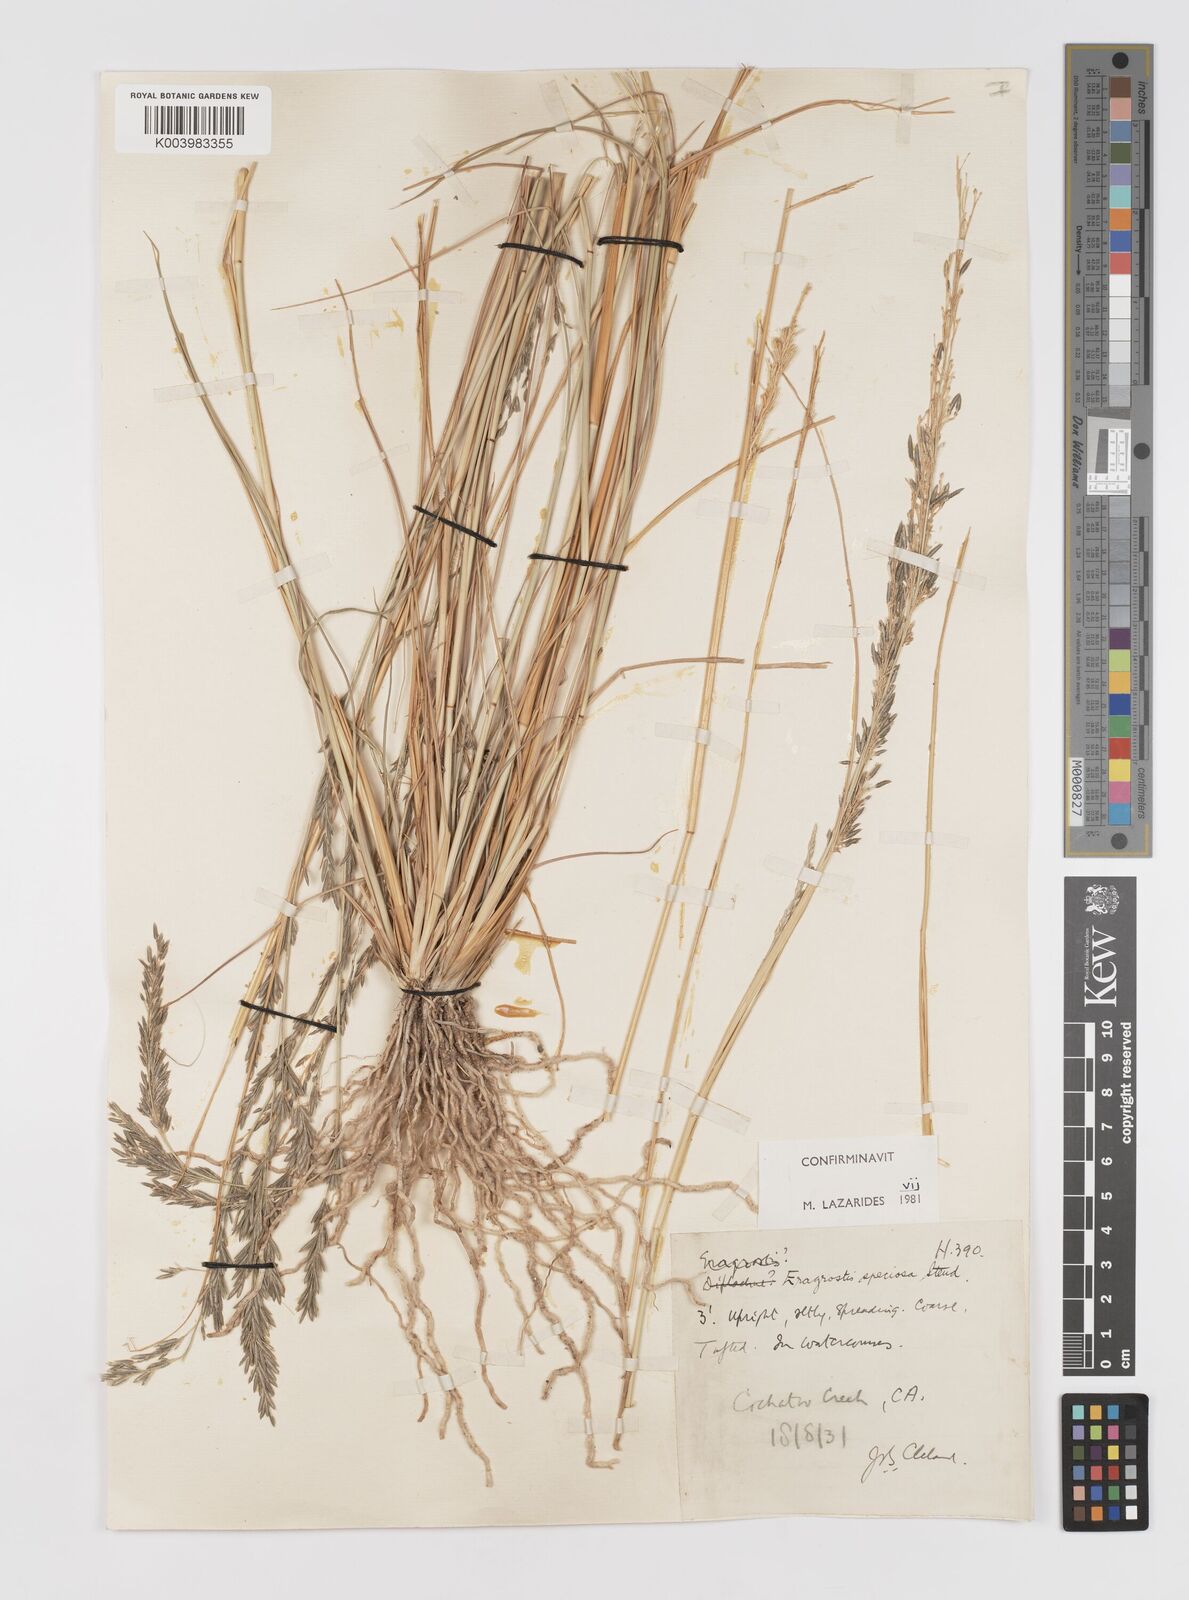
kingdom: Plantae
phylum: Tracheophyta
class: Liliopsida
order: Poales
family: Poaceae
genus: Eragrostis
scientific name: Eragrostis speciosa
